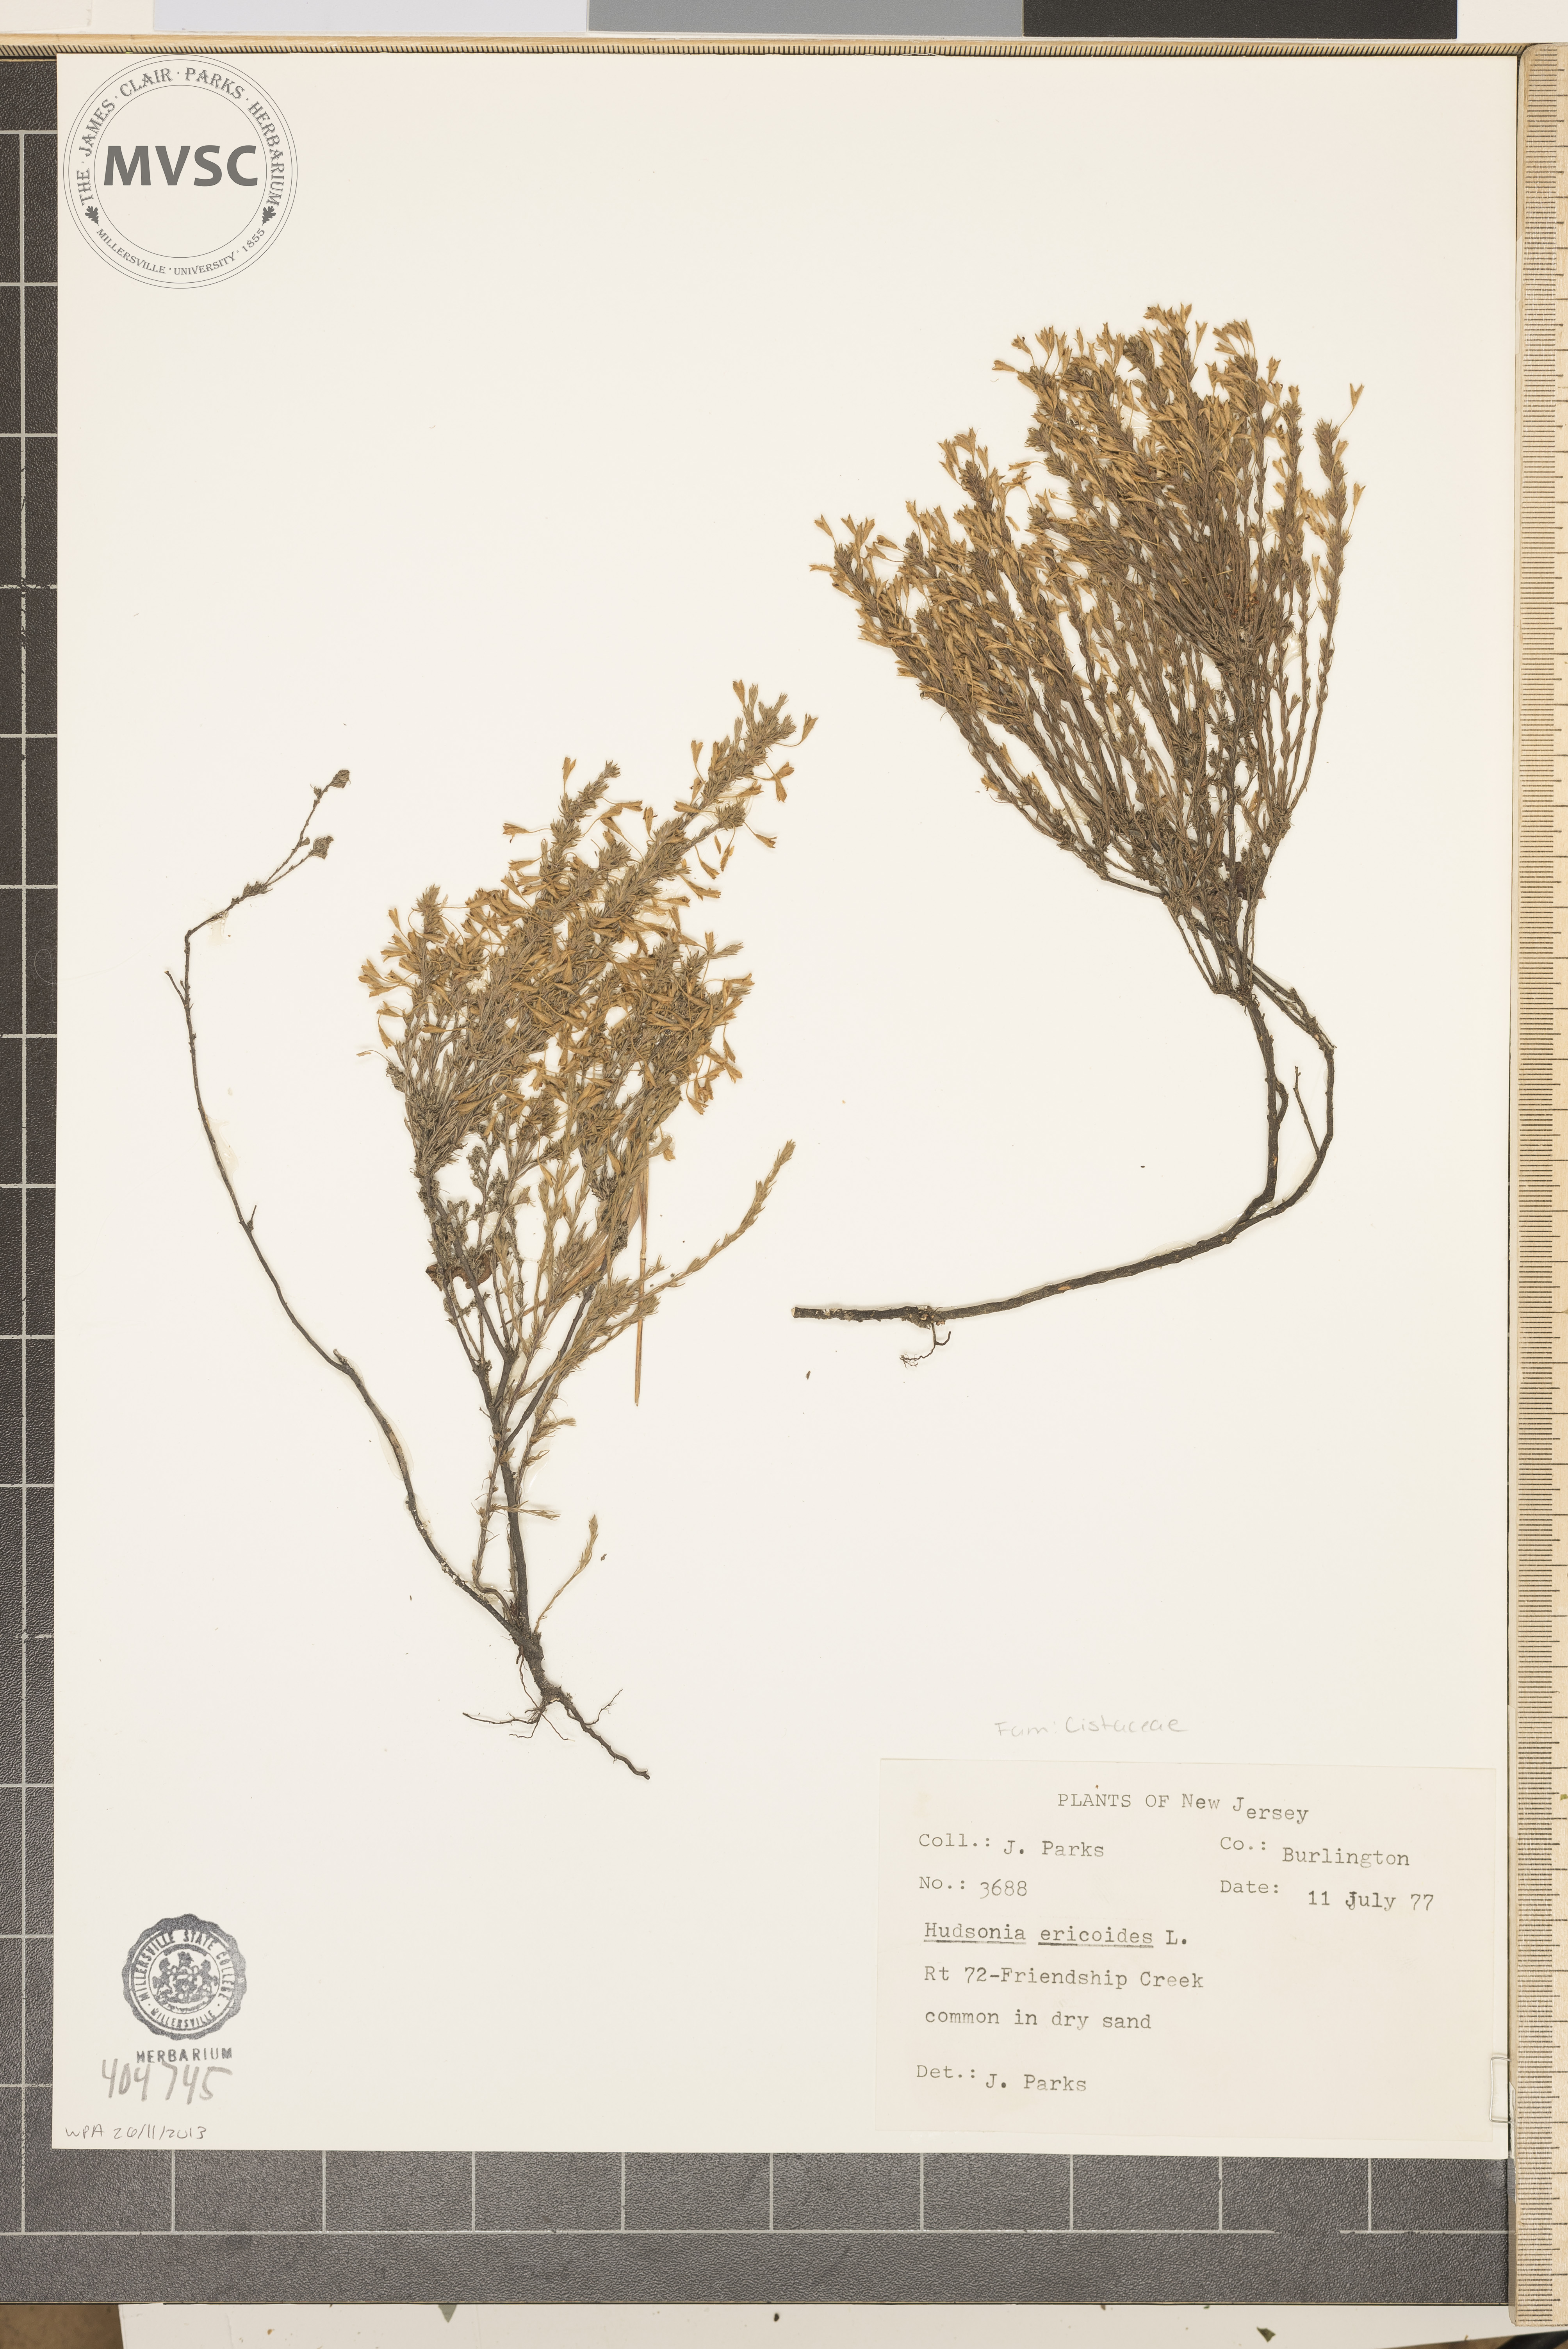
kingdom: Plantae
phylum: Tracheophyta
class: Magnoliopsida
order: Malvales
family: Cistaceae
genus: Hudsonia
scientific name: Hudsonia ericoides
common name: Golden-heather
